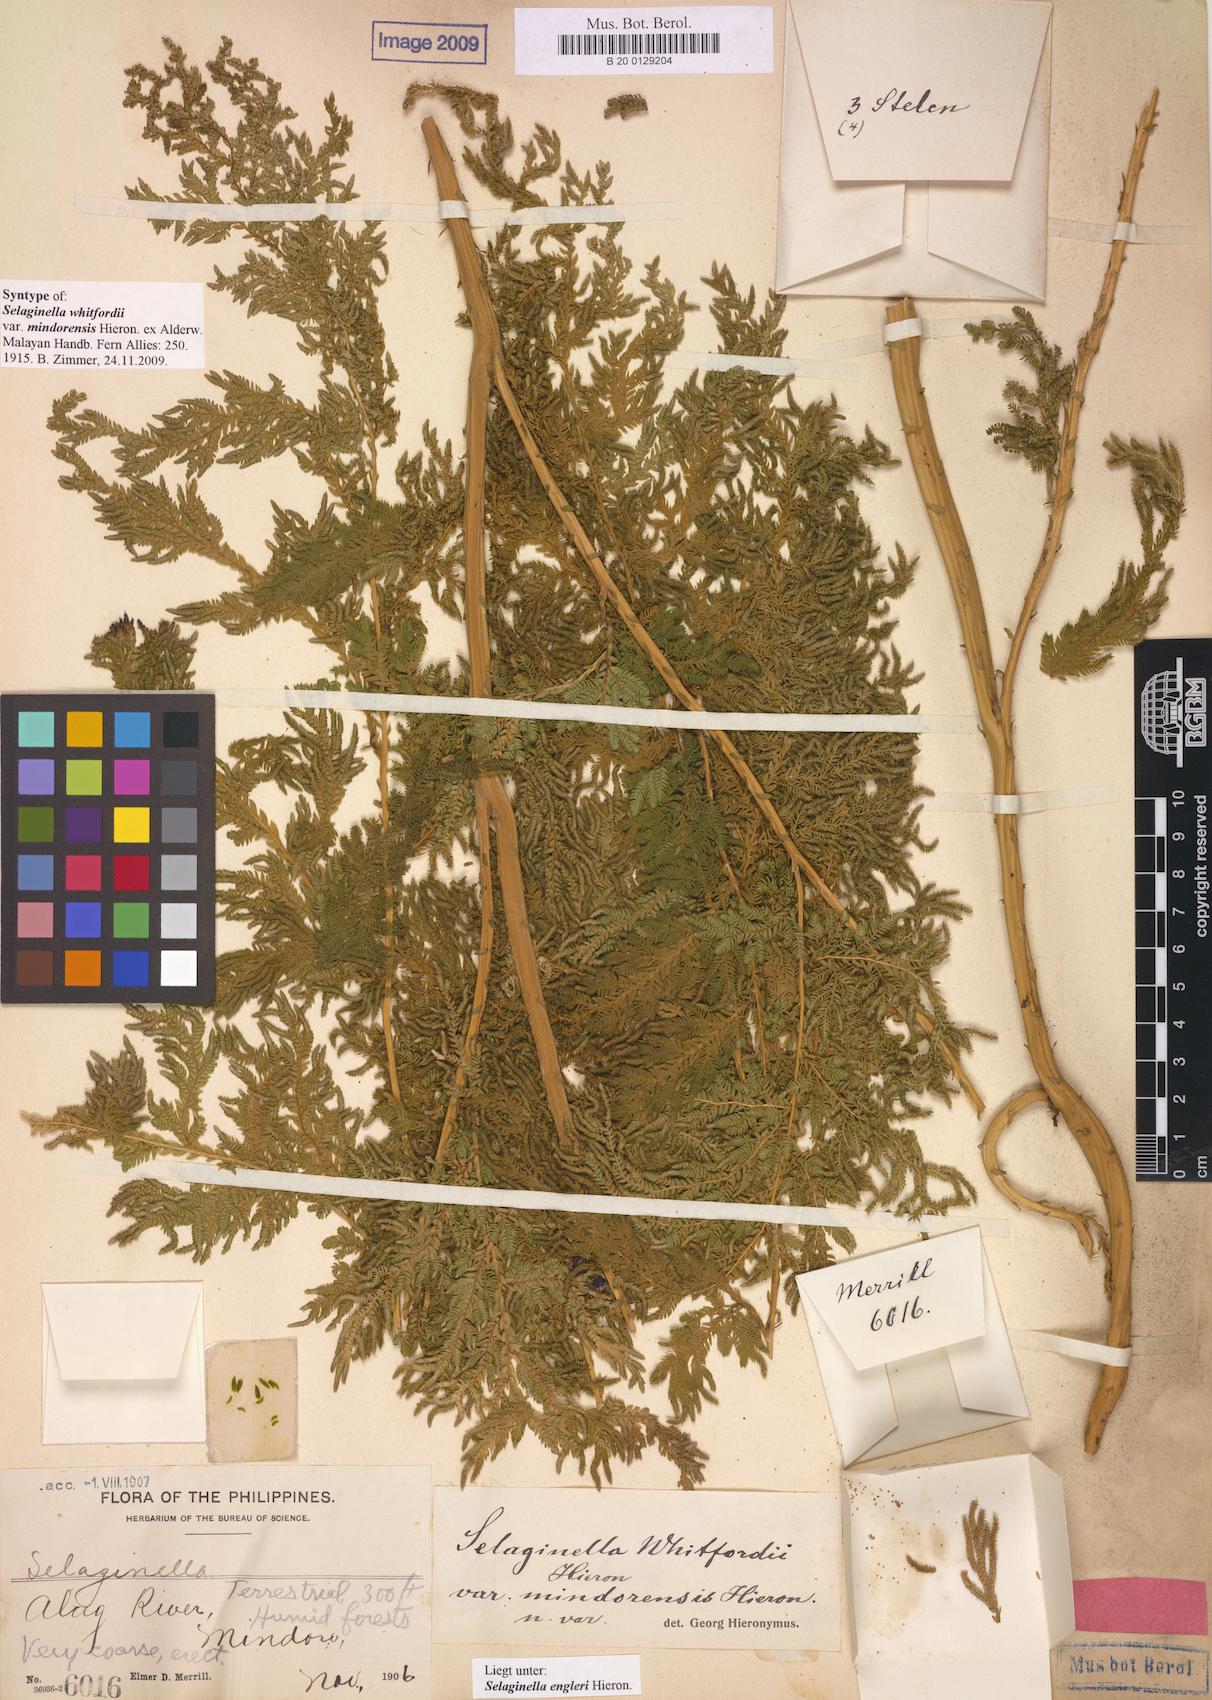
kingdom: Plantae
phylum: Tracheophyta
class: Lycopodiopsida
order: Selaginellales
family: Selaginellaceae
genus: Selaginella
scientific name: Selaginella engleri
